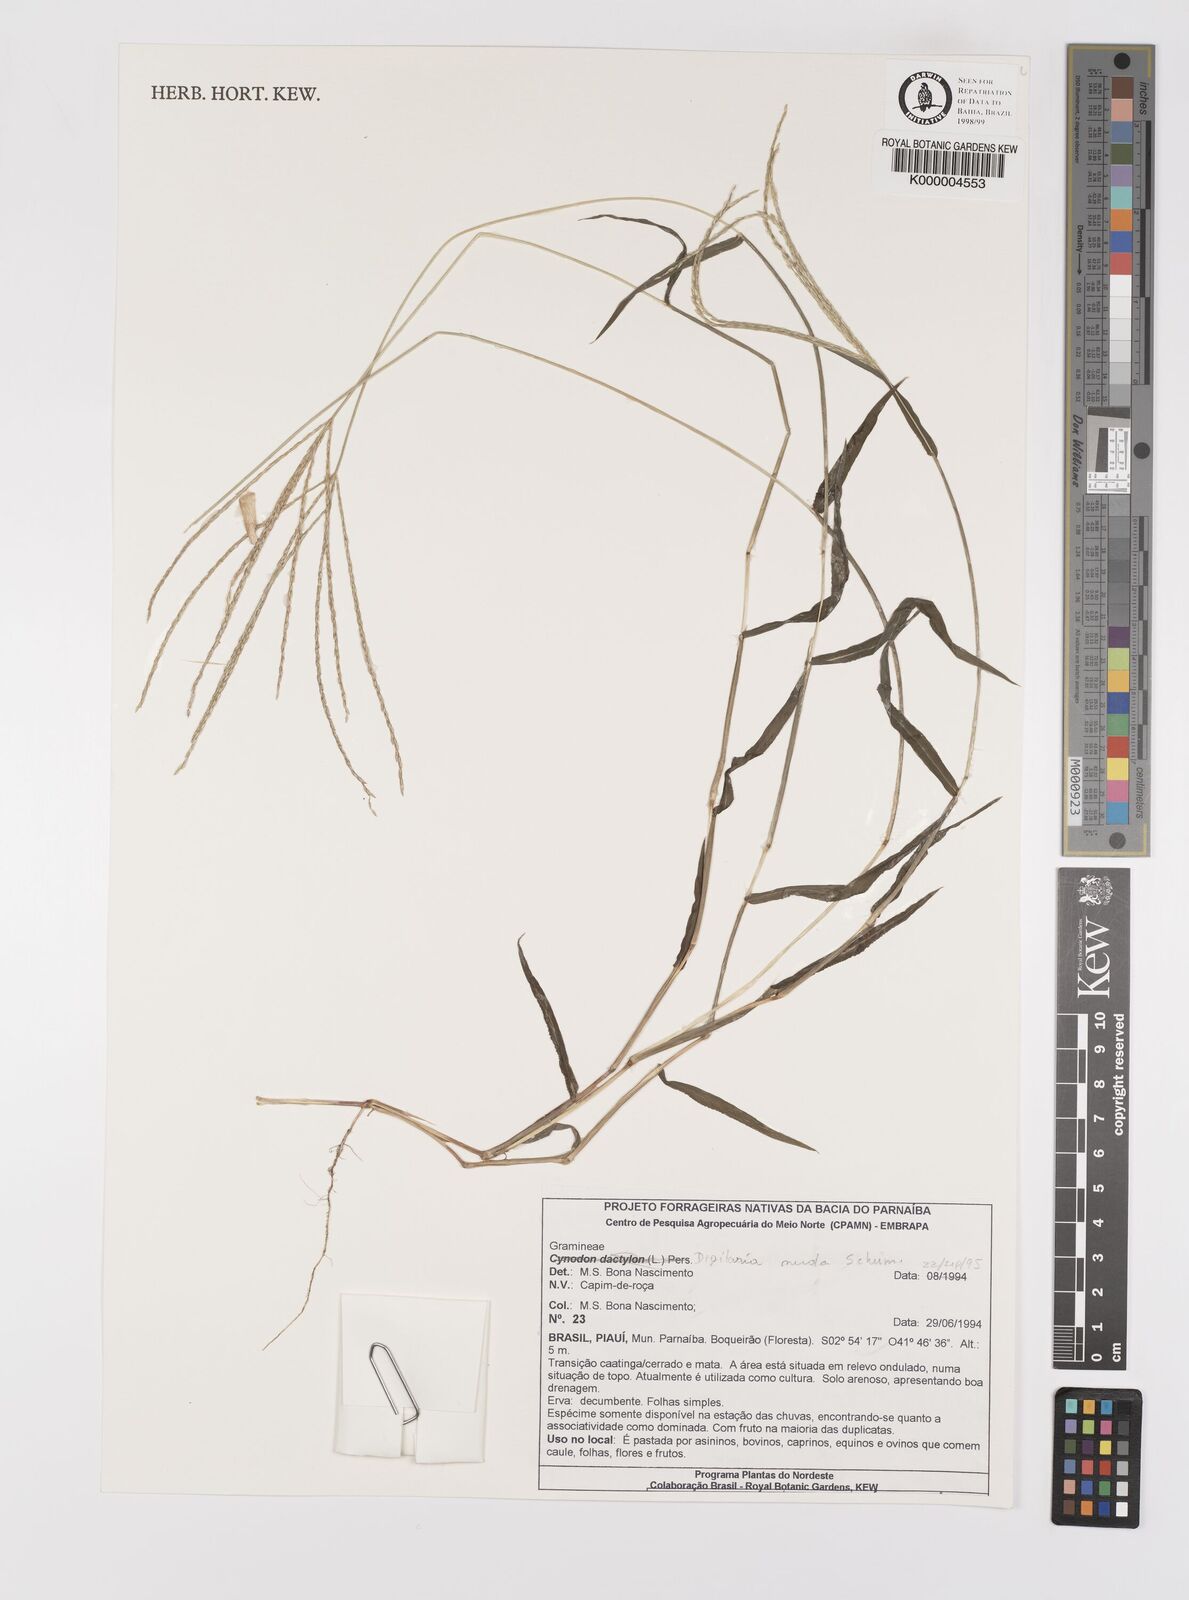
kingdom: Plantae
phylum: Tracheophyta
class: Liliopsida
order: Poales
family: Poaceae
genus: Digitaria
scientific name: Digitaria nuda
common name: Naked crabgrass
